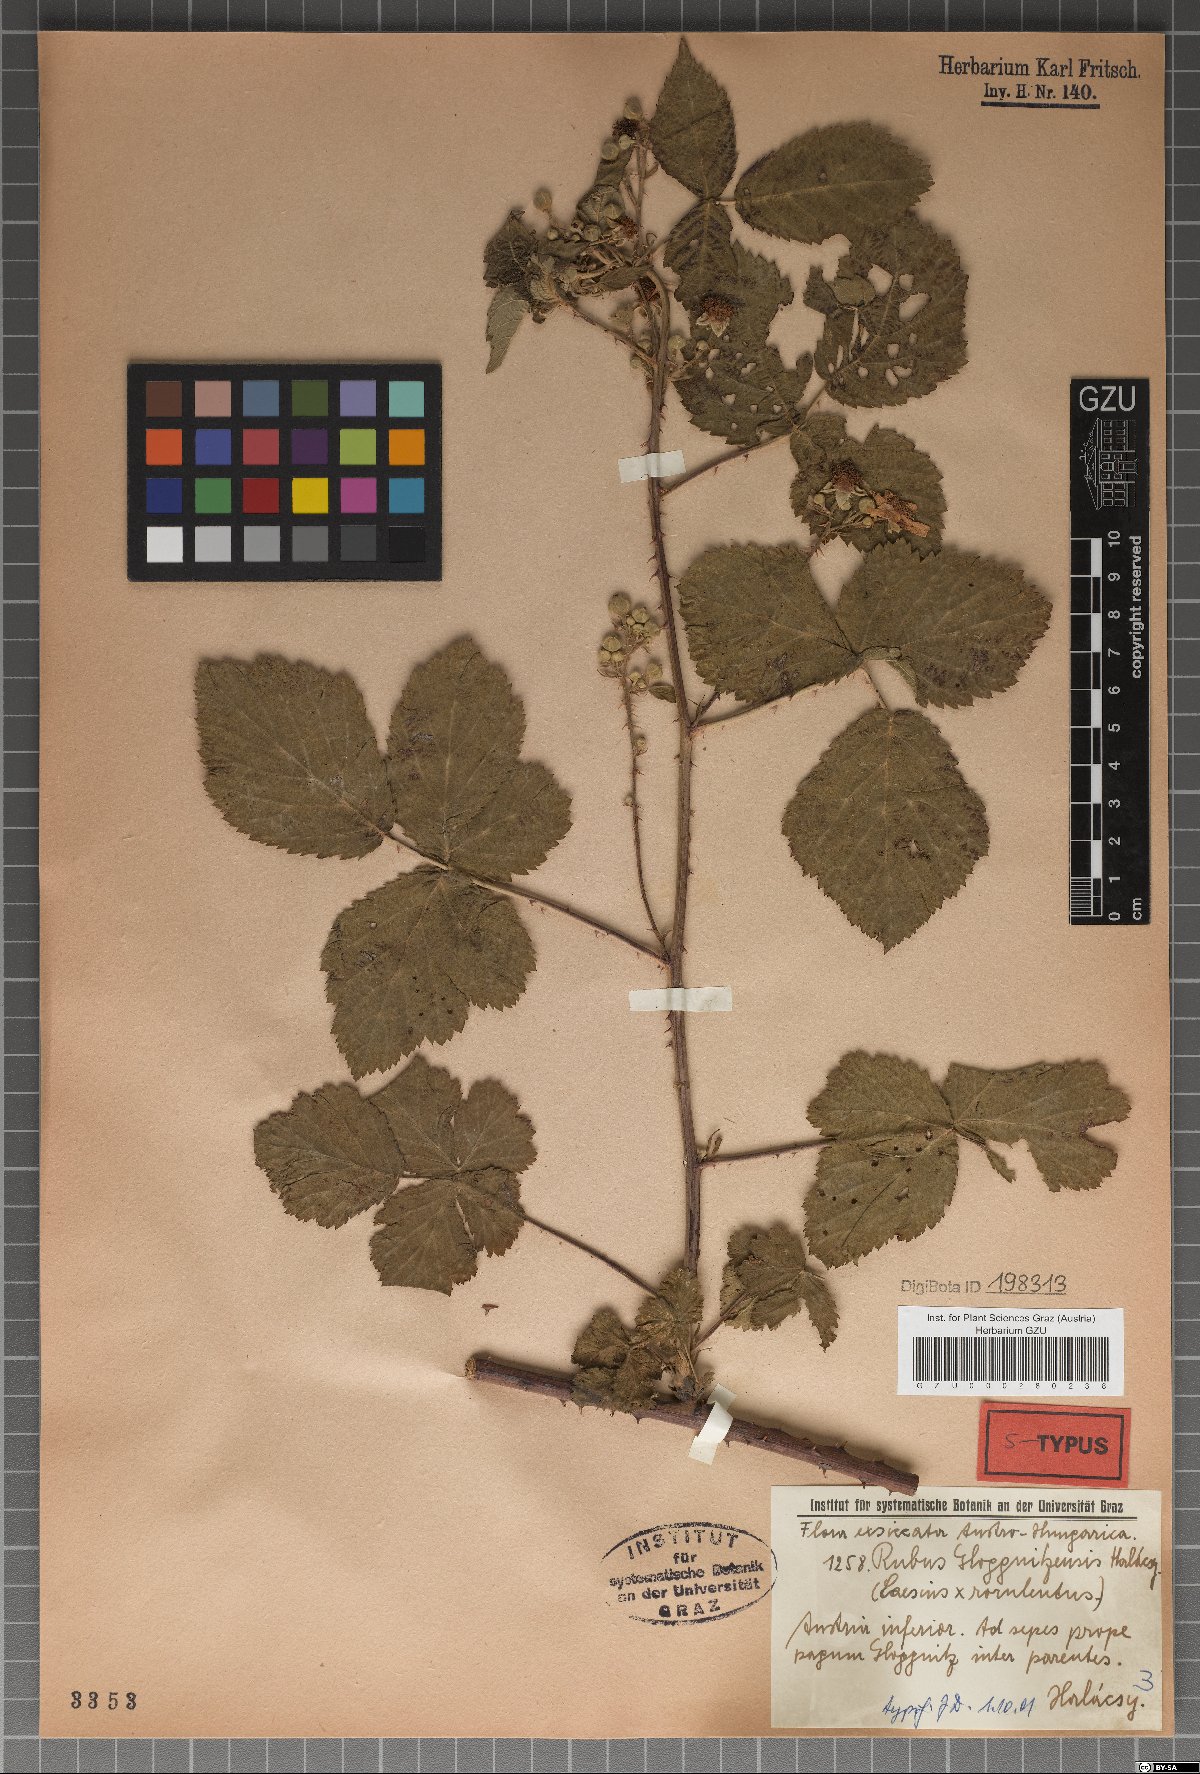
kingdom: Plantae
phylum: Tracheophyta
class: Magnoliopsida
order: Rosales
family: Rosaceae
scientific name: Rosaceae
